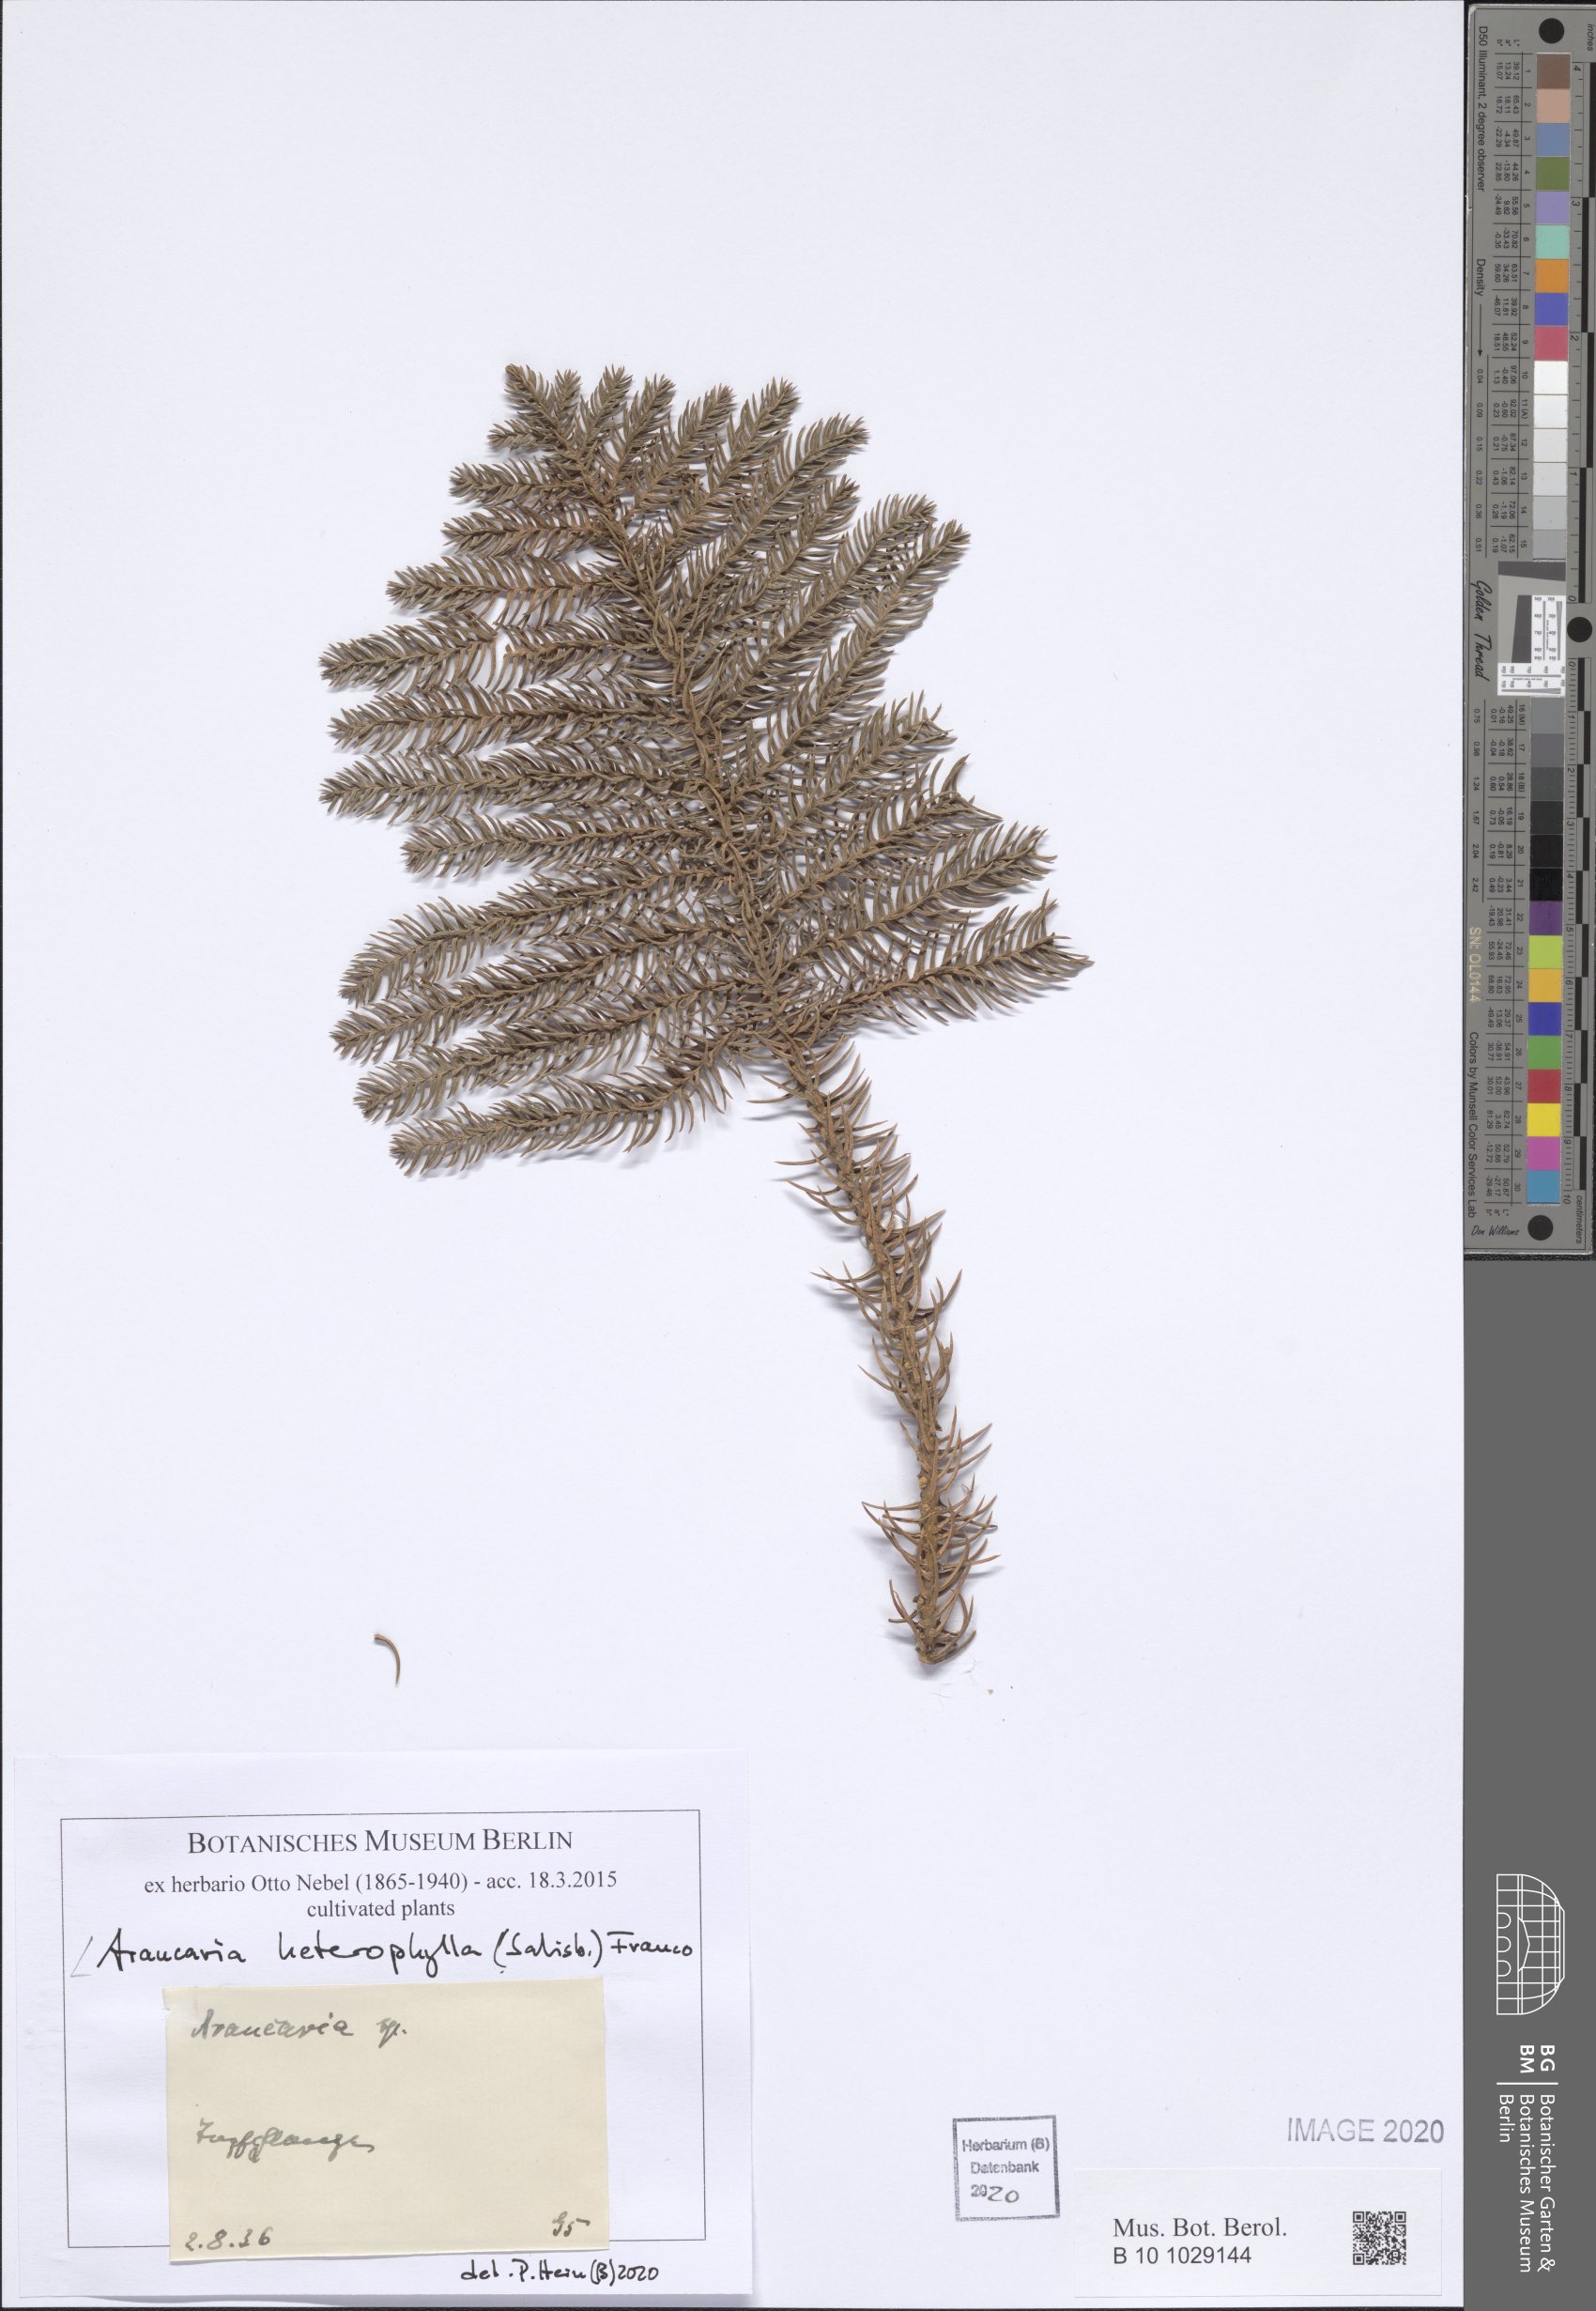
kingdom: Plantae
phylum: Tracheophyta
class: Pinopsida
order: Pinales
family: Araucariaceae
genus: Araucaria
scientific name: Araucaria heterophylla
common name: Norfolk island pine
